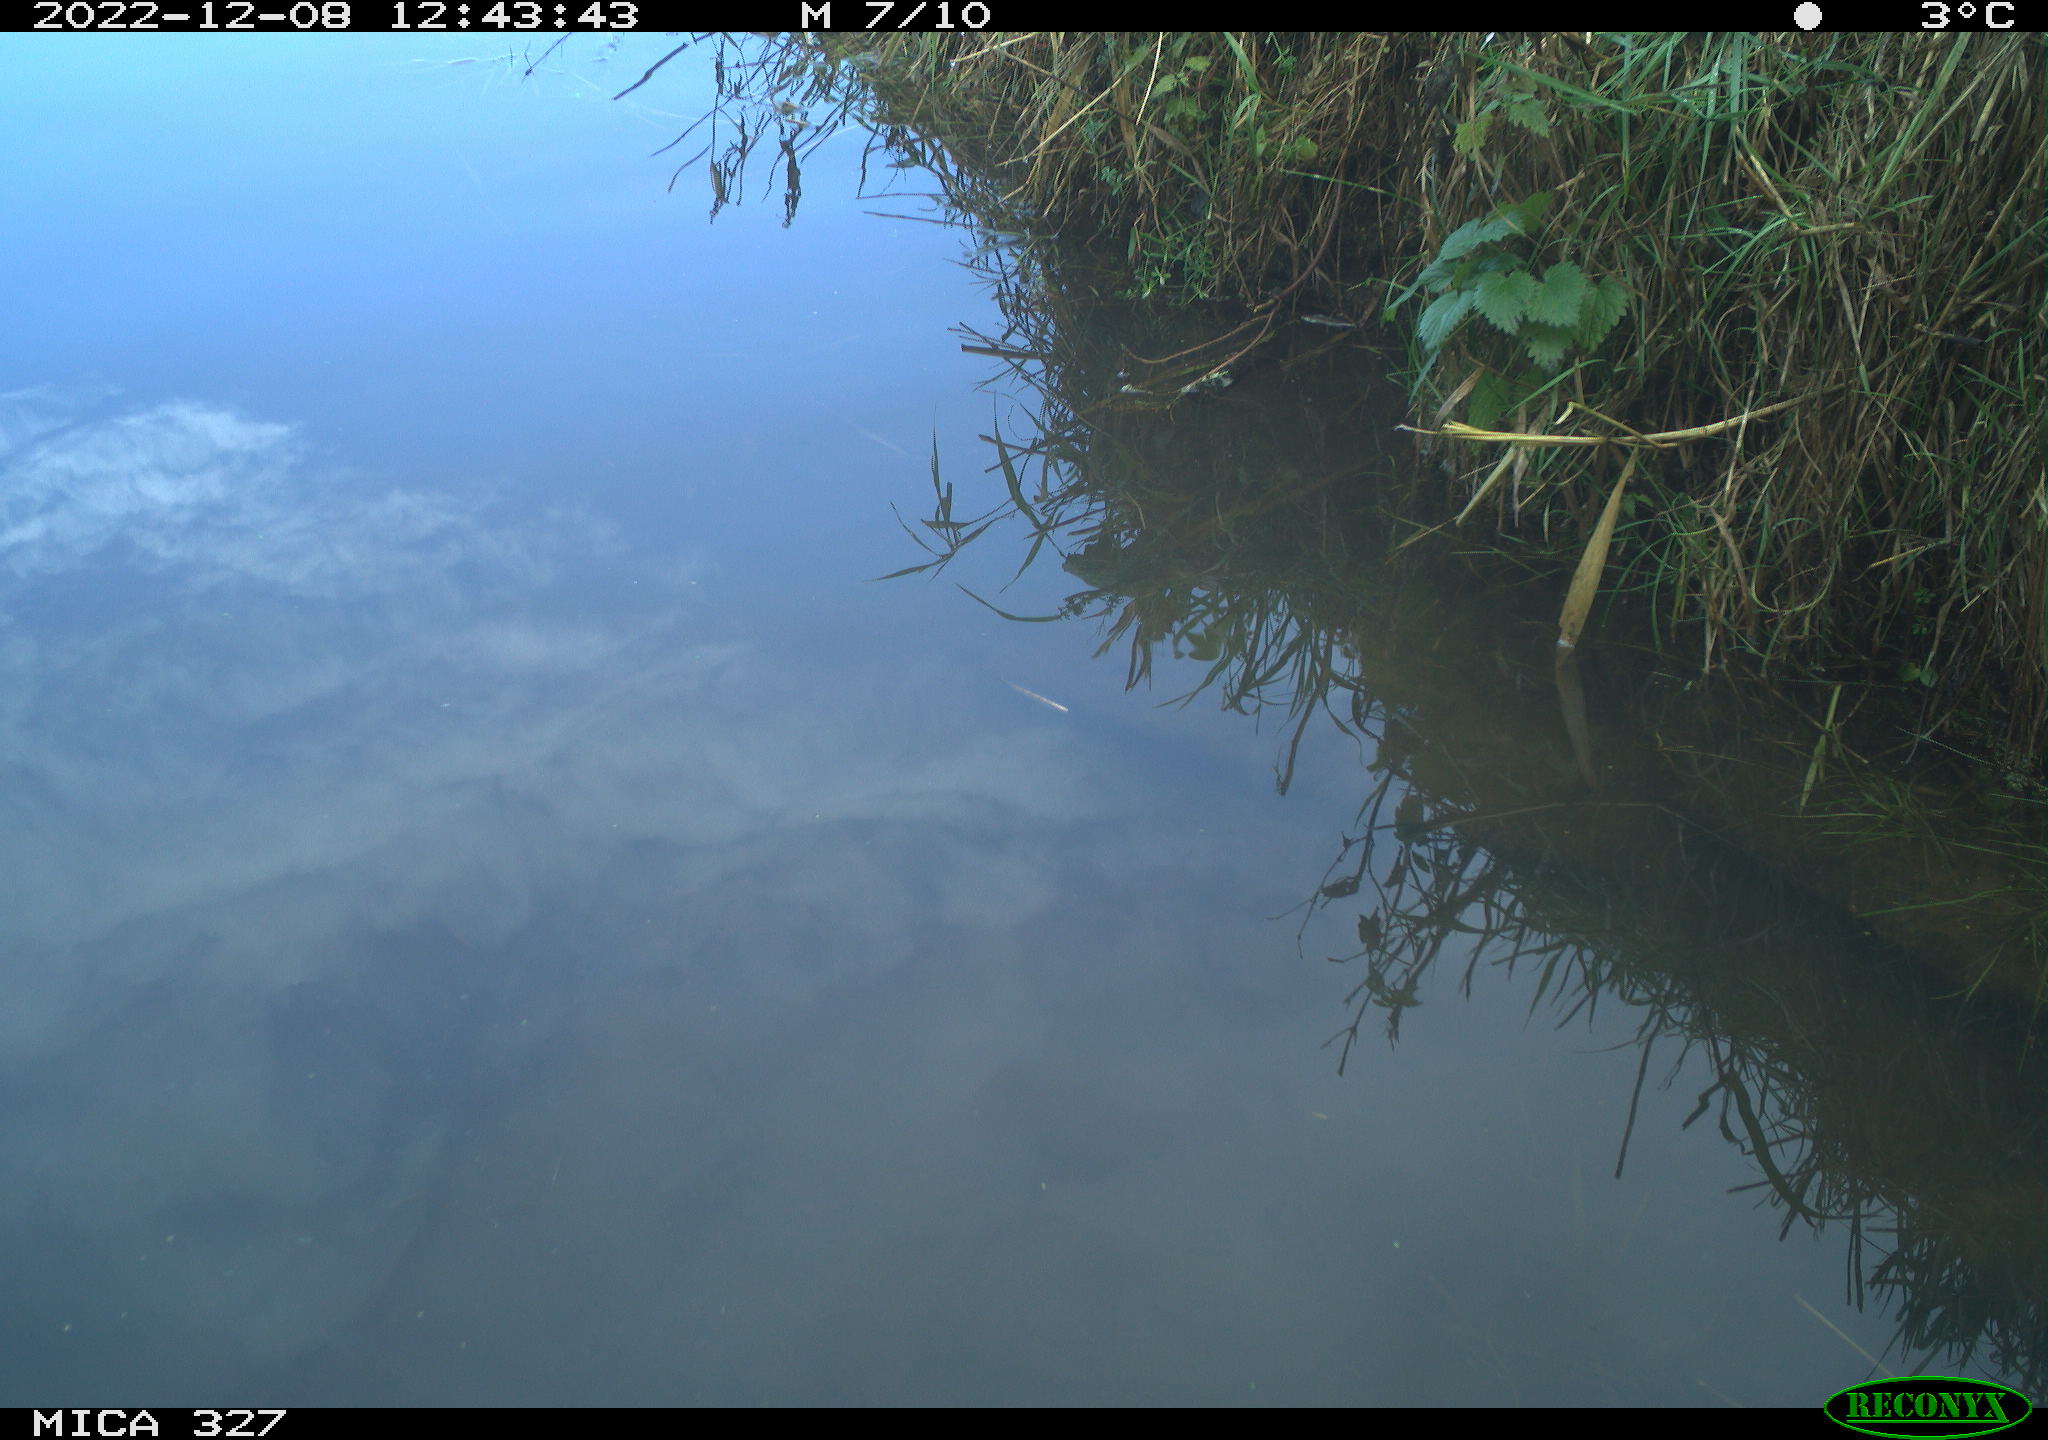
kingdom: Animalia
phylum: Chordata
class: Aves
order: Gruiformes
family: Rallidae
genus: Gallinula
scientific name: Gallinula chloropus
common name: Common moorhen
